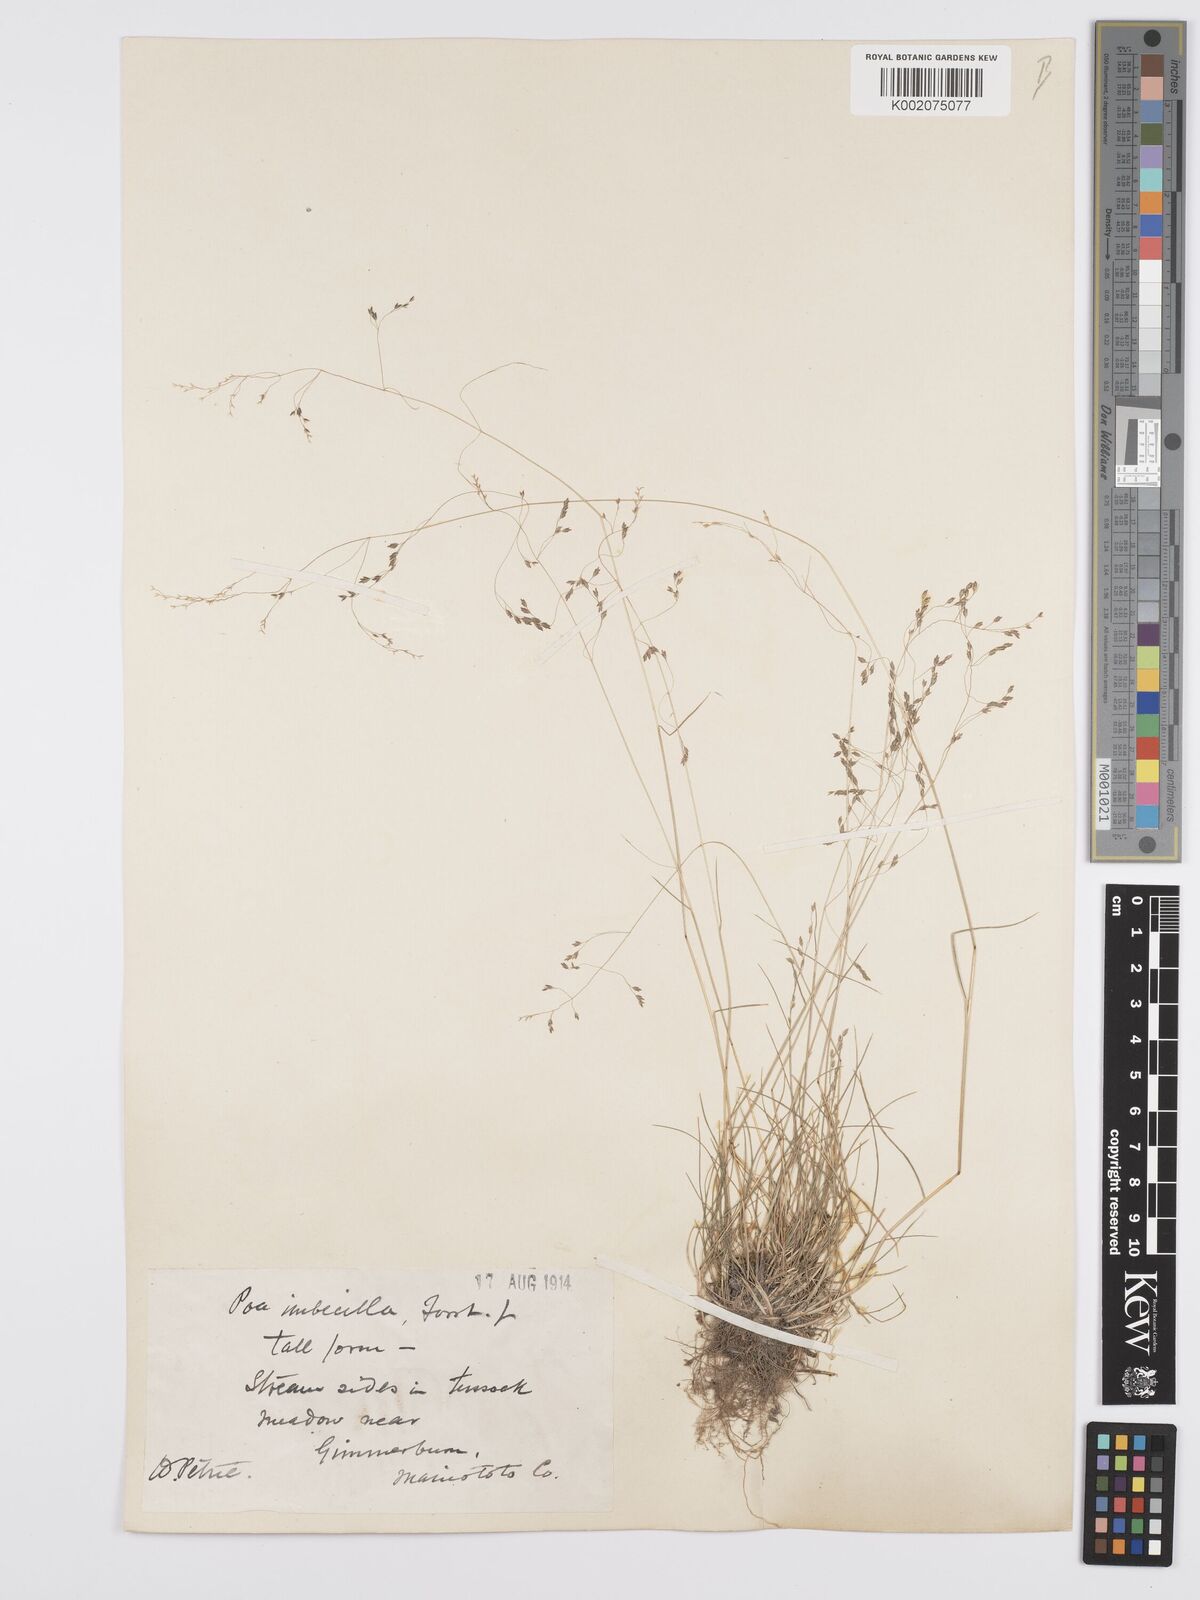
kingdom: Plantae
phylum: Tracheophyta
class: Liliopsida
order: Poales
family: Poaceae
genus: Poa
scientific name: Poa breviglumis
